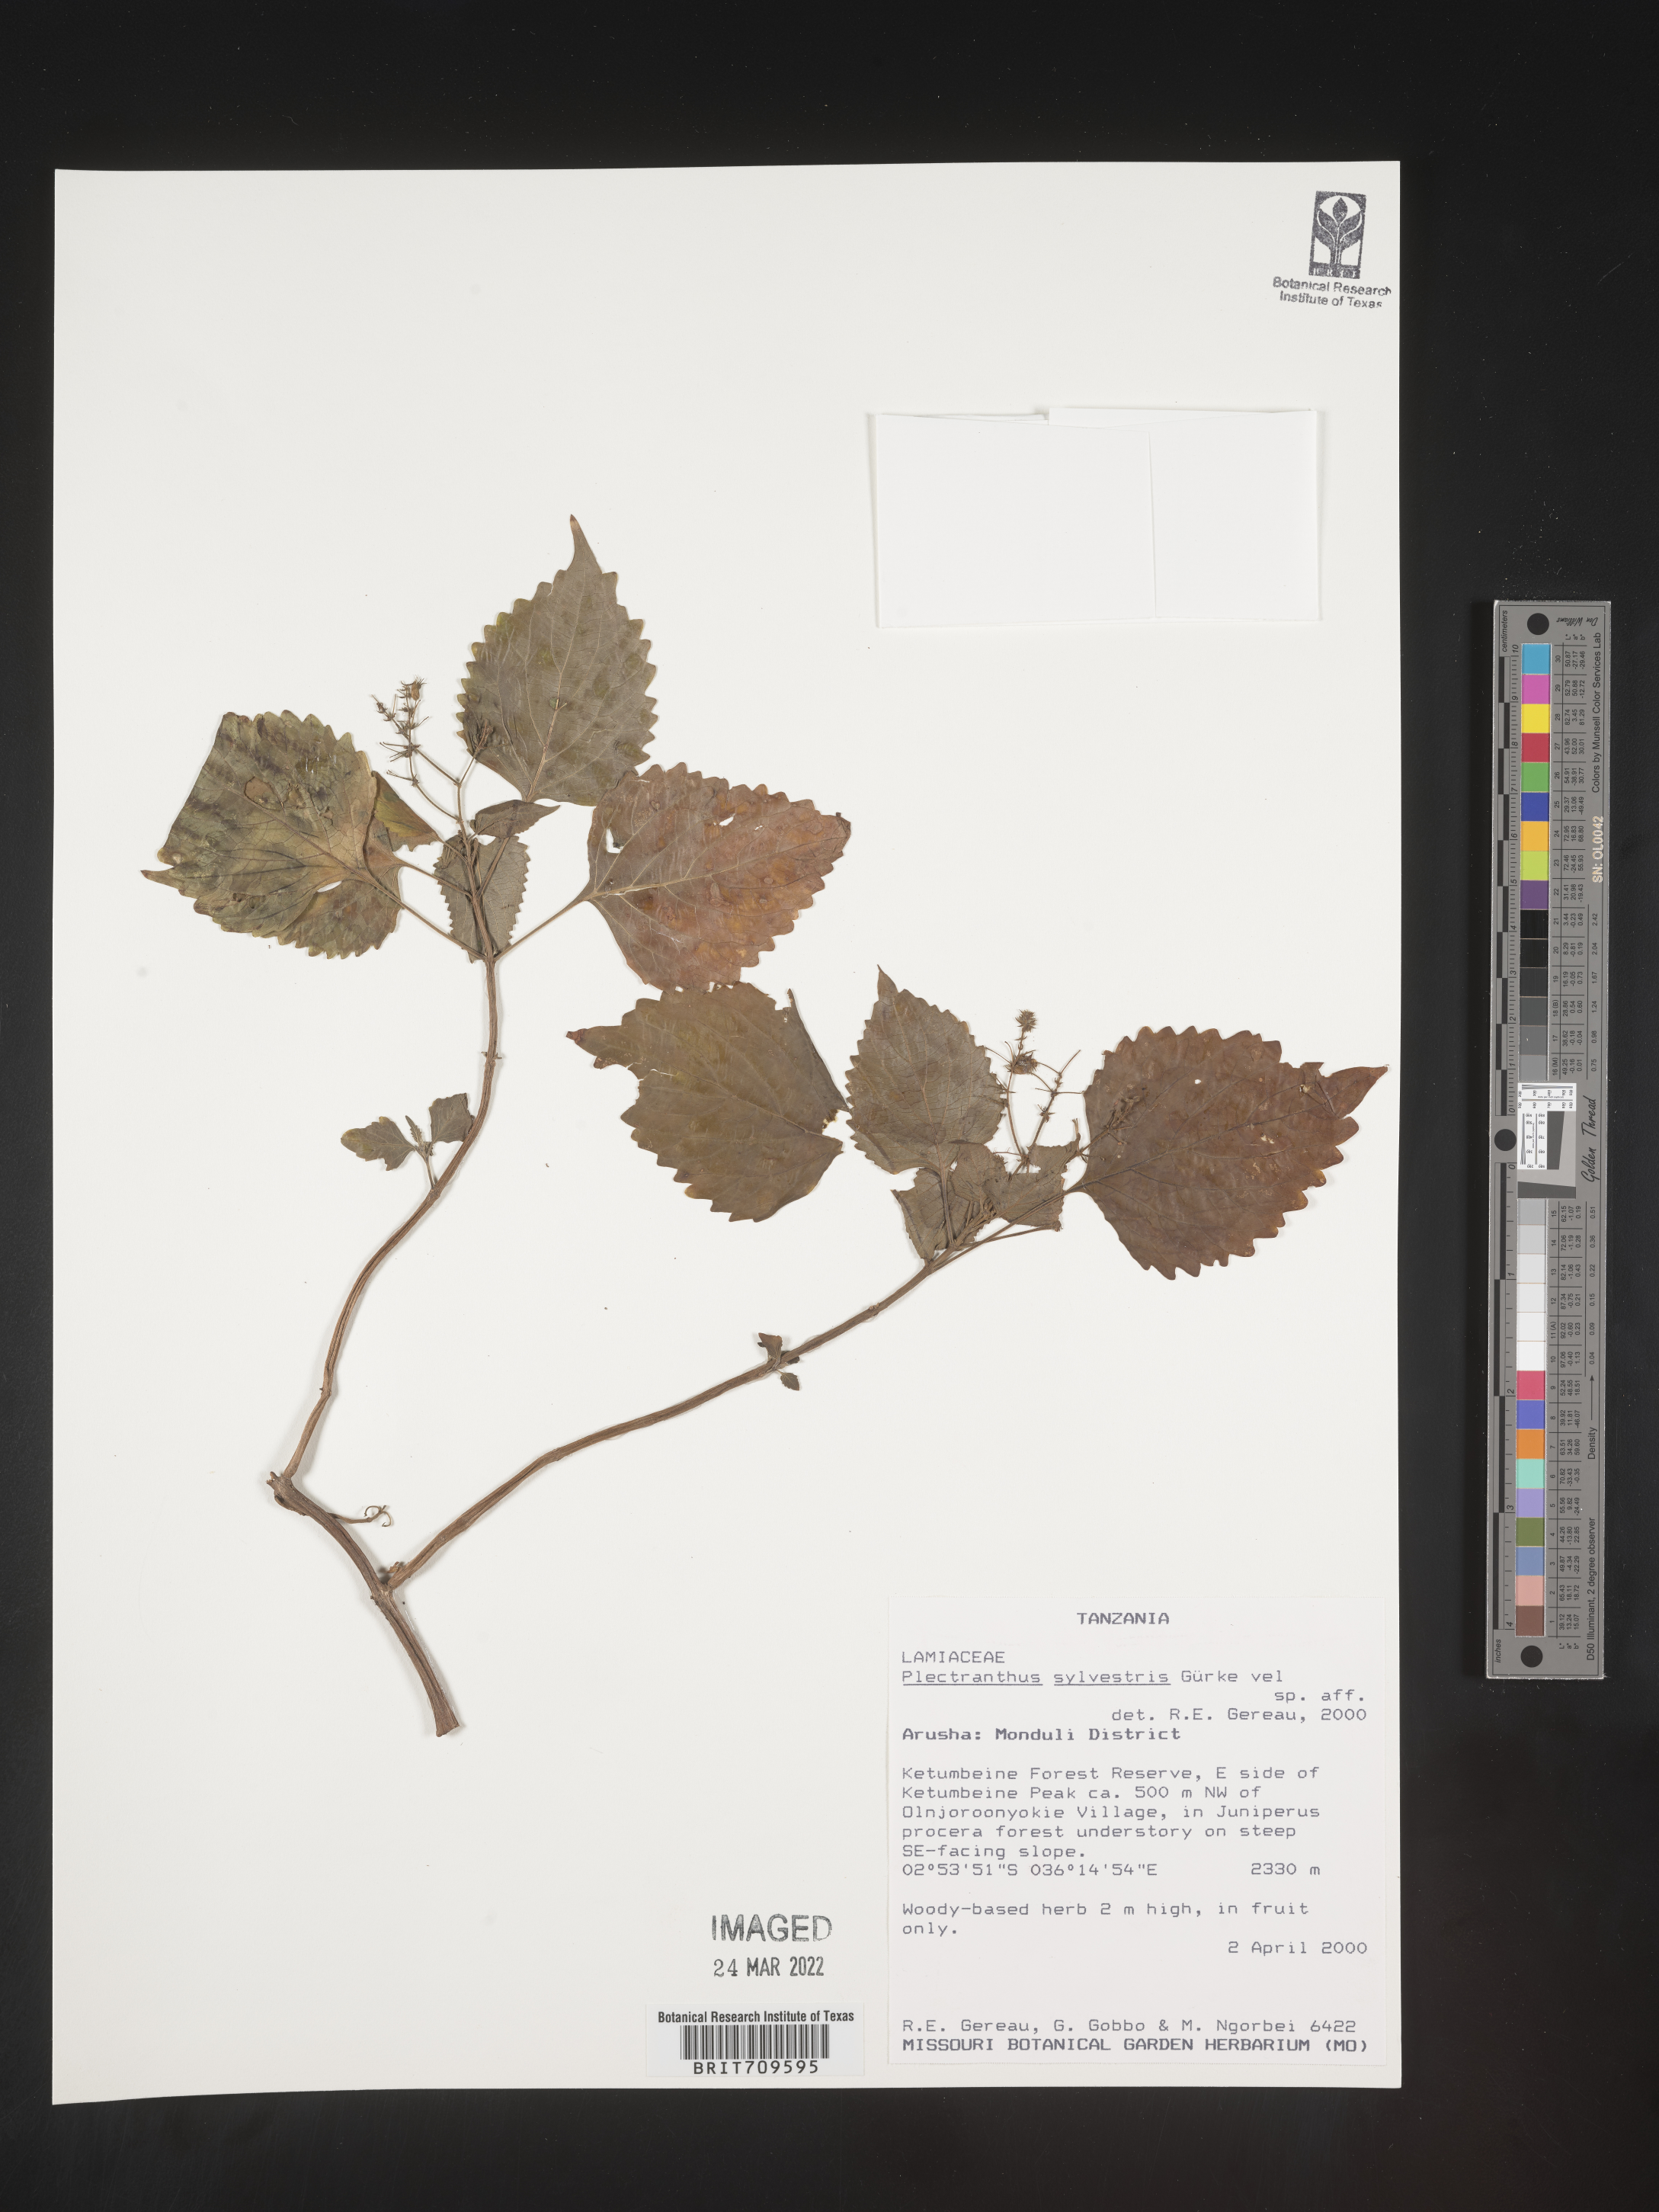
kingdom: Plantae
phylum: Tracheophyta
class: Magnoliopsida
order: Lamiales
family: Lamiaceae
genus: Plectranthus
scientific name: Plectranthus
